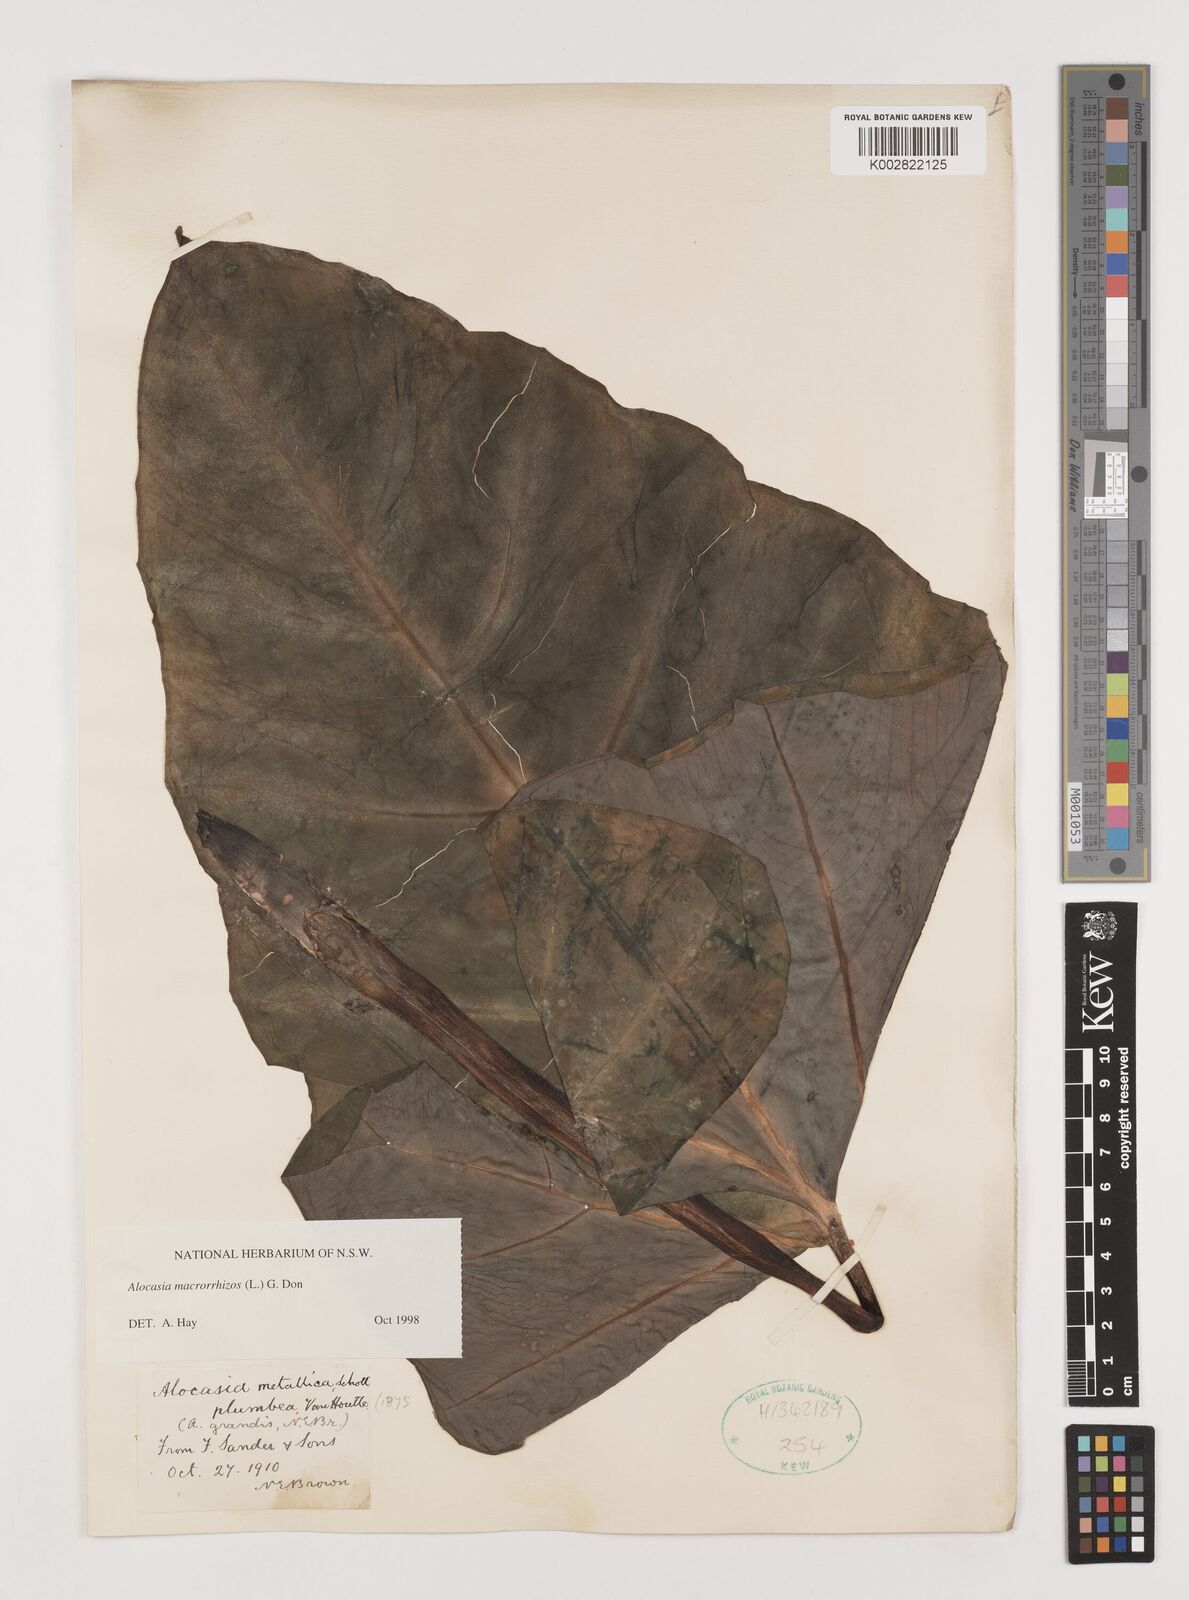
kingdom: Plantae
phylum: Tracheophyta
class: Liliopsida
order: Alismatales
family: Araceae
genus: Alocasia
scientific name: Alocasia macrorrhizos
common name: Giant taro
